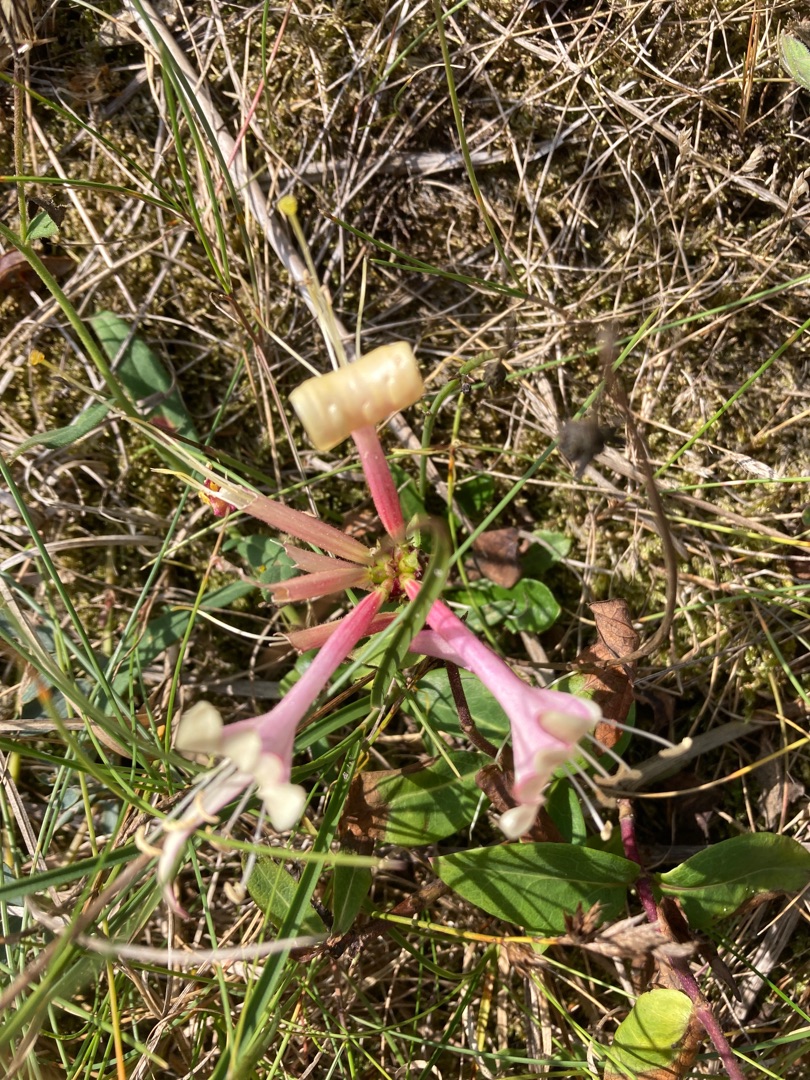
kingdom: Plantae
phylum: Tracheophyta
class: Magnoliopsida
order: Dipsacales
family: Caprifoliaceae
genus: Lonicera
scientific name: Lonicera periclymenum
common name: Almindelig gedeblad
